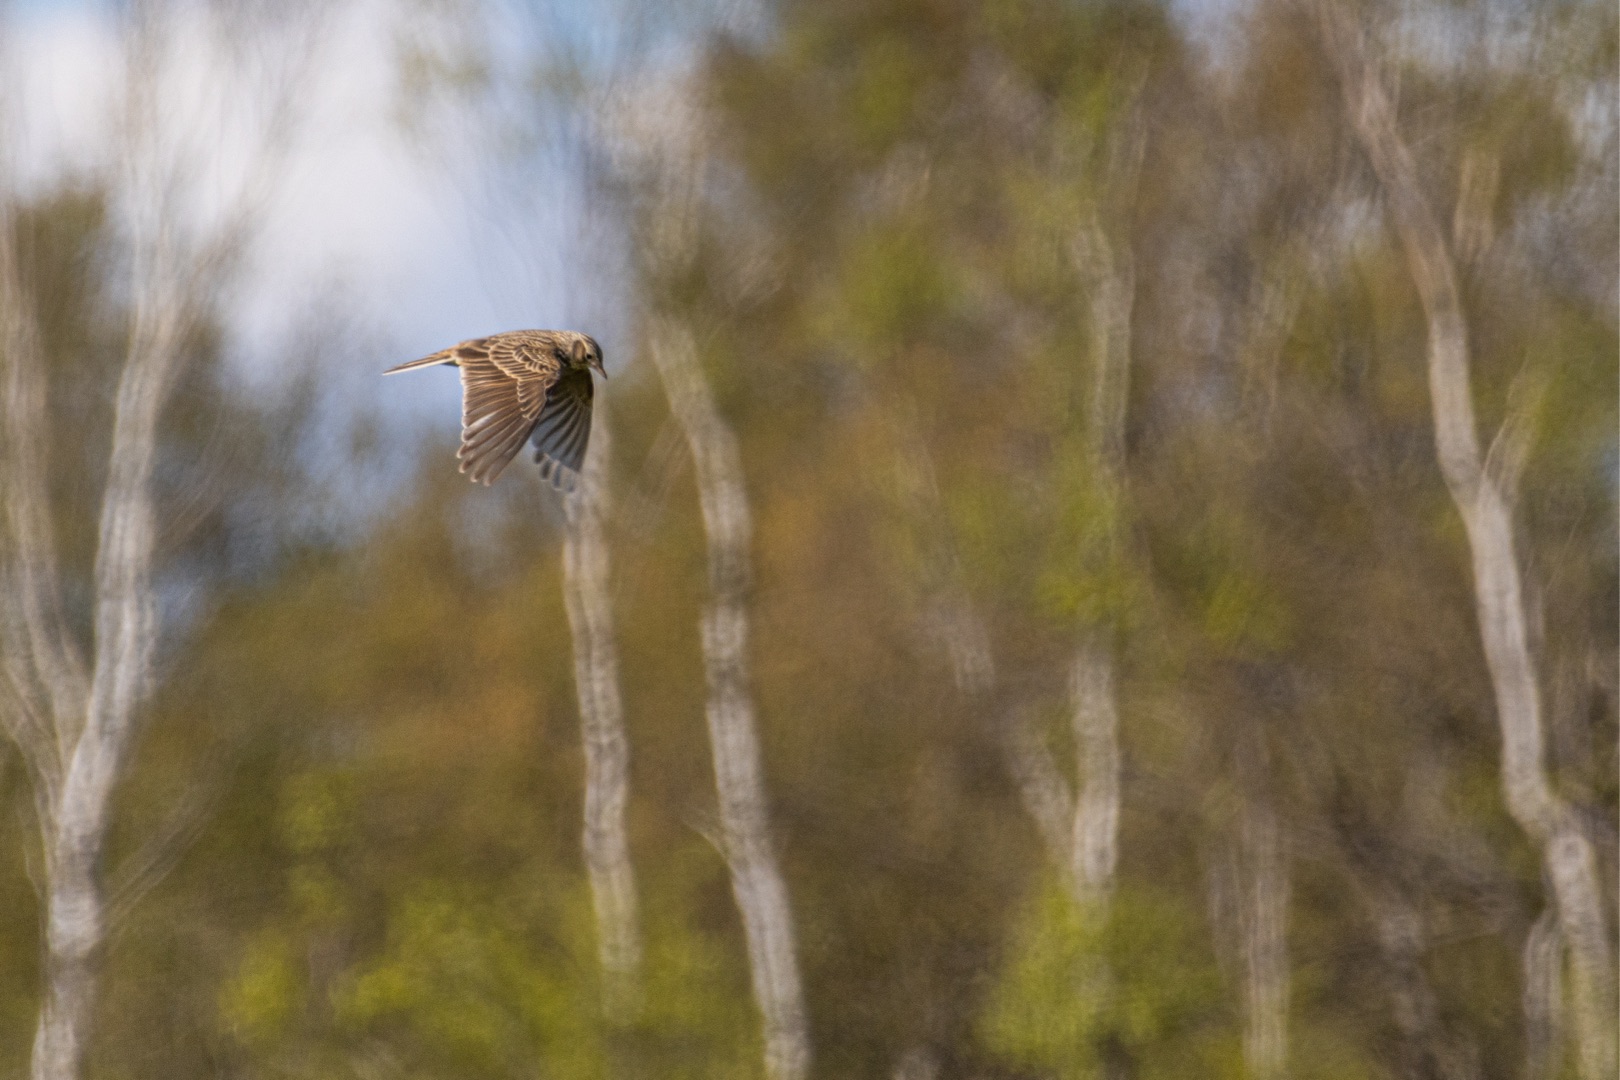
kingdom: Animalia
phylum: Chordata
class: Aves
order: Passeriformes
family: Alaudidae
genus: Alauda
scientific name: Alauda arvensis
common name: Sanglærke
